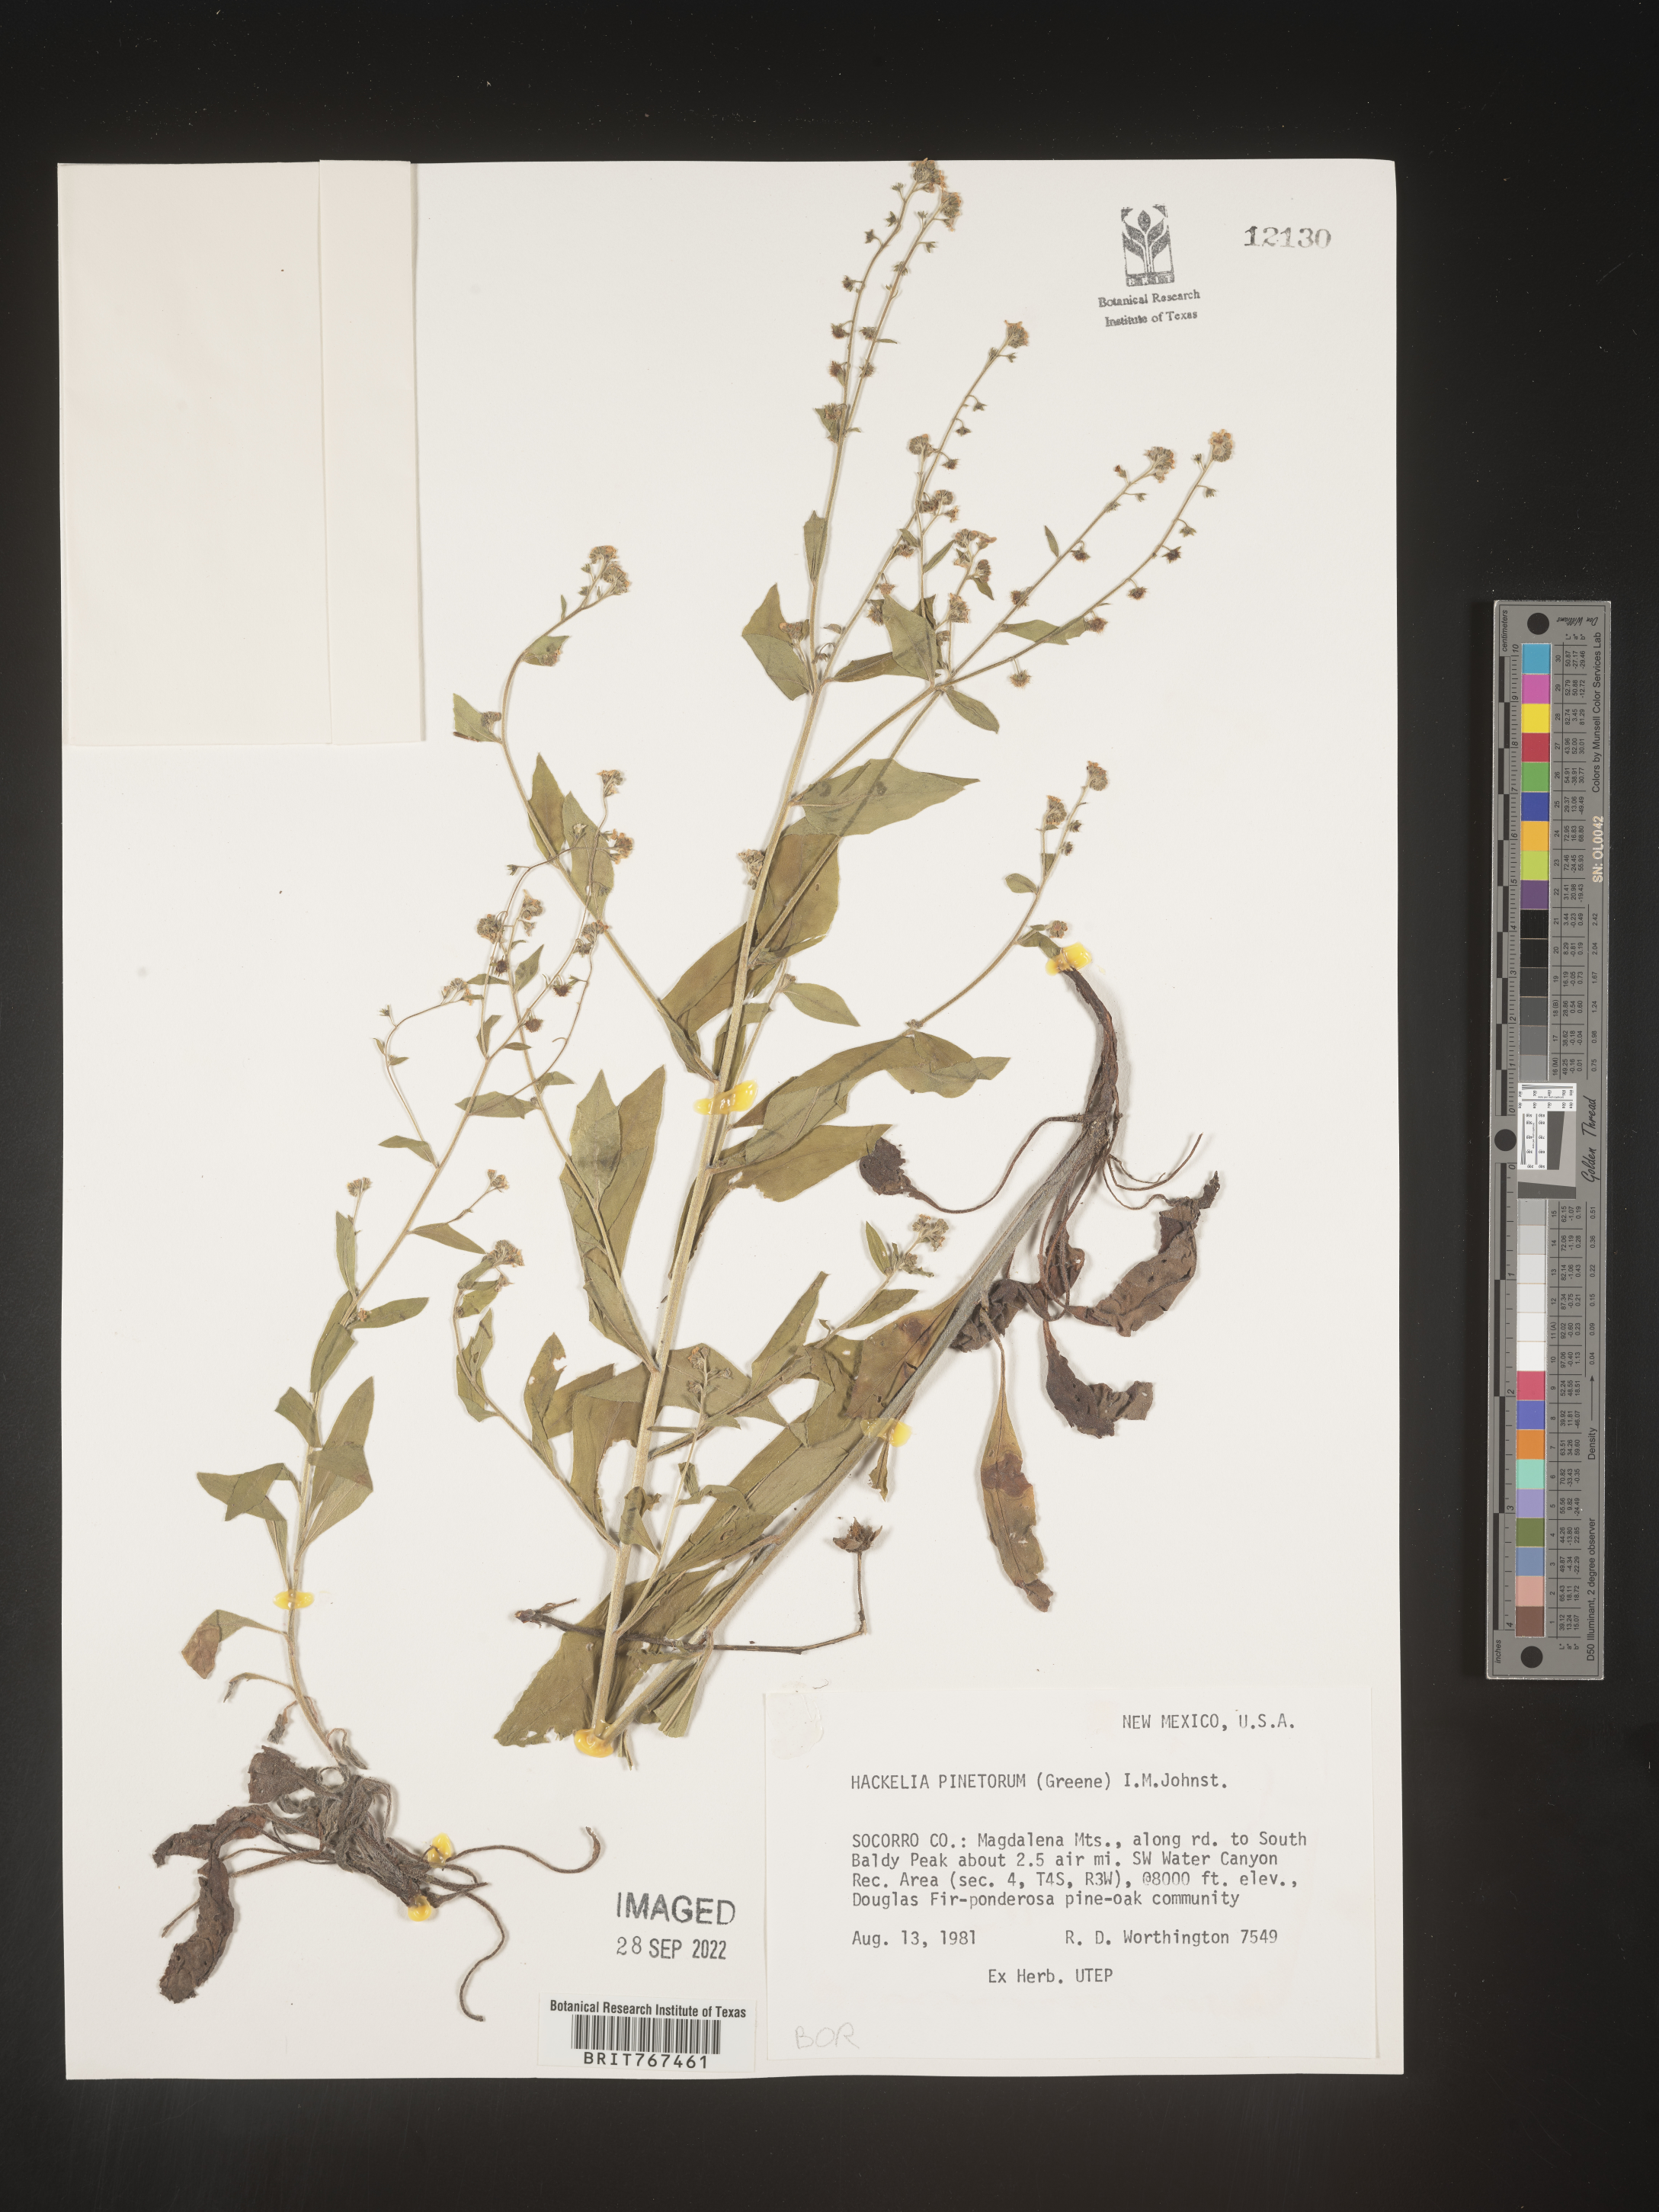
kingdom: Plantae
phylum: Tracheophyta
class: Magnoliopsida
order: Boraginales
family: Boraginaceae
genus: Hackelia
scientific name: Hackelia
